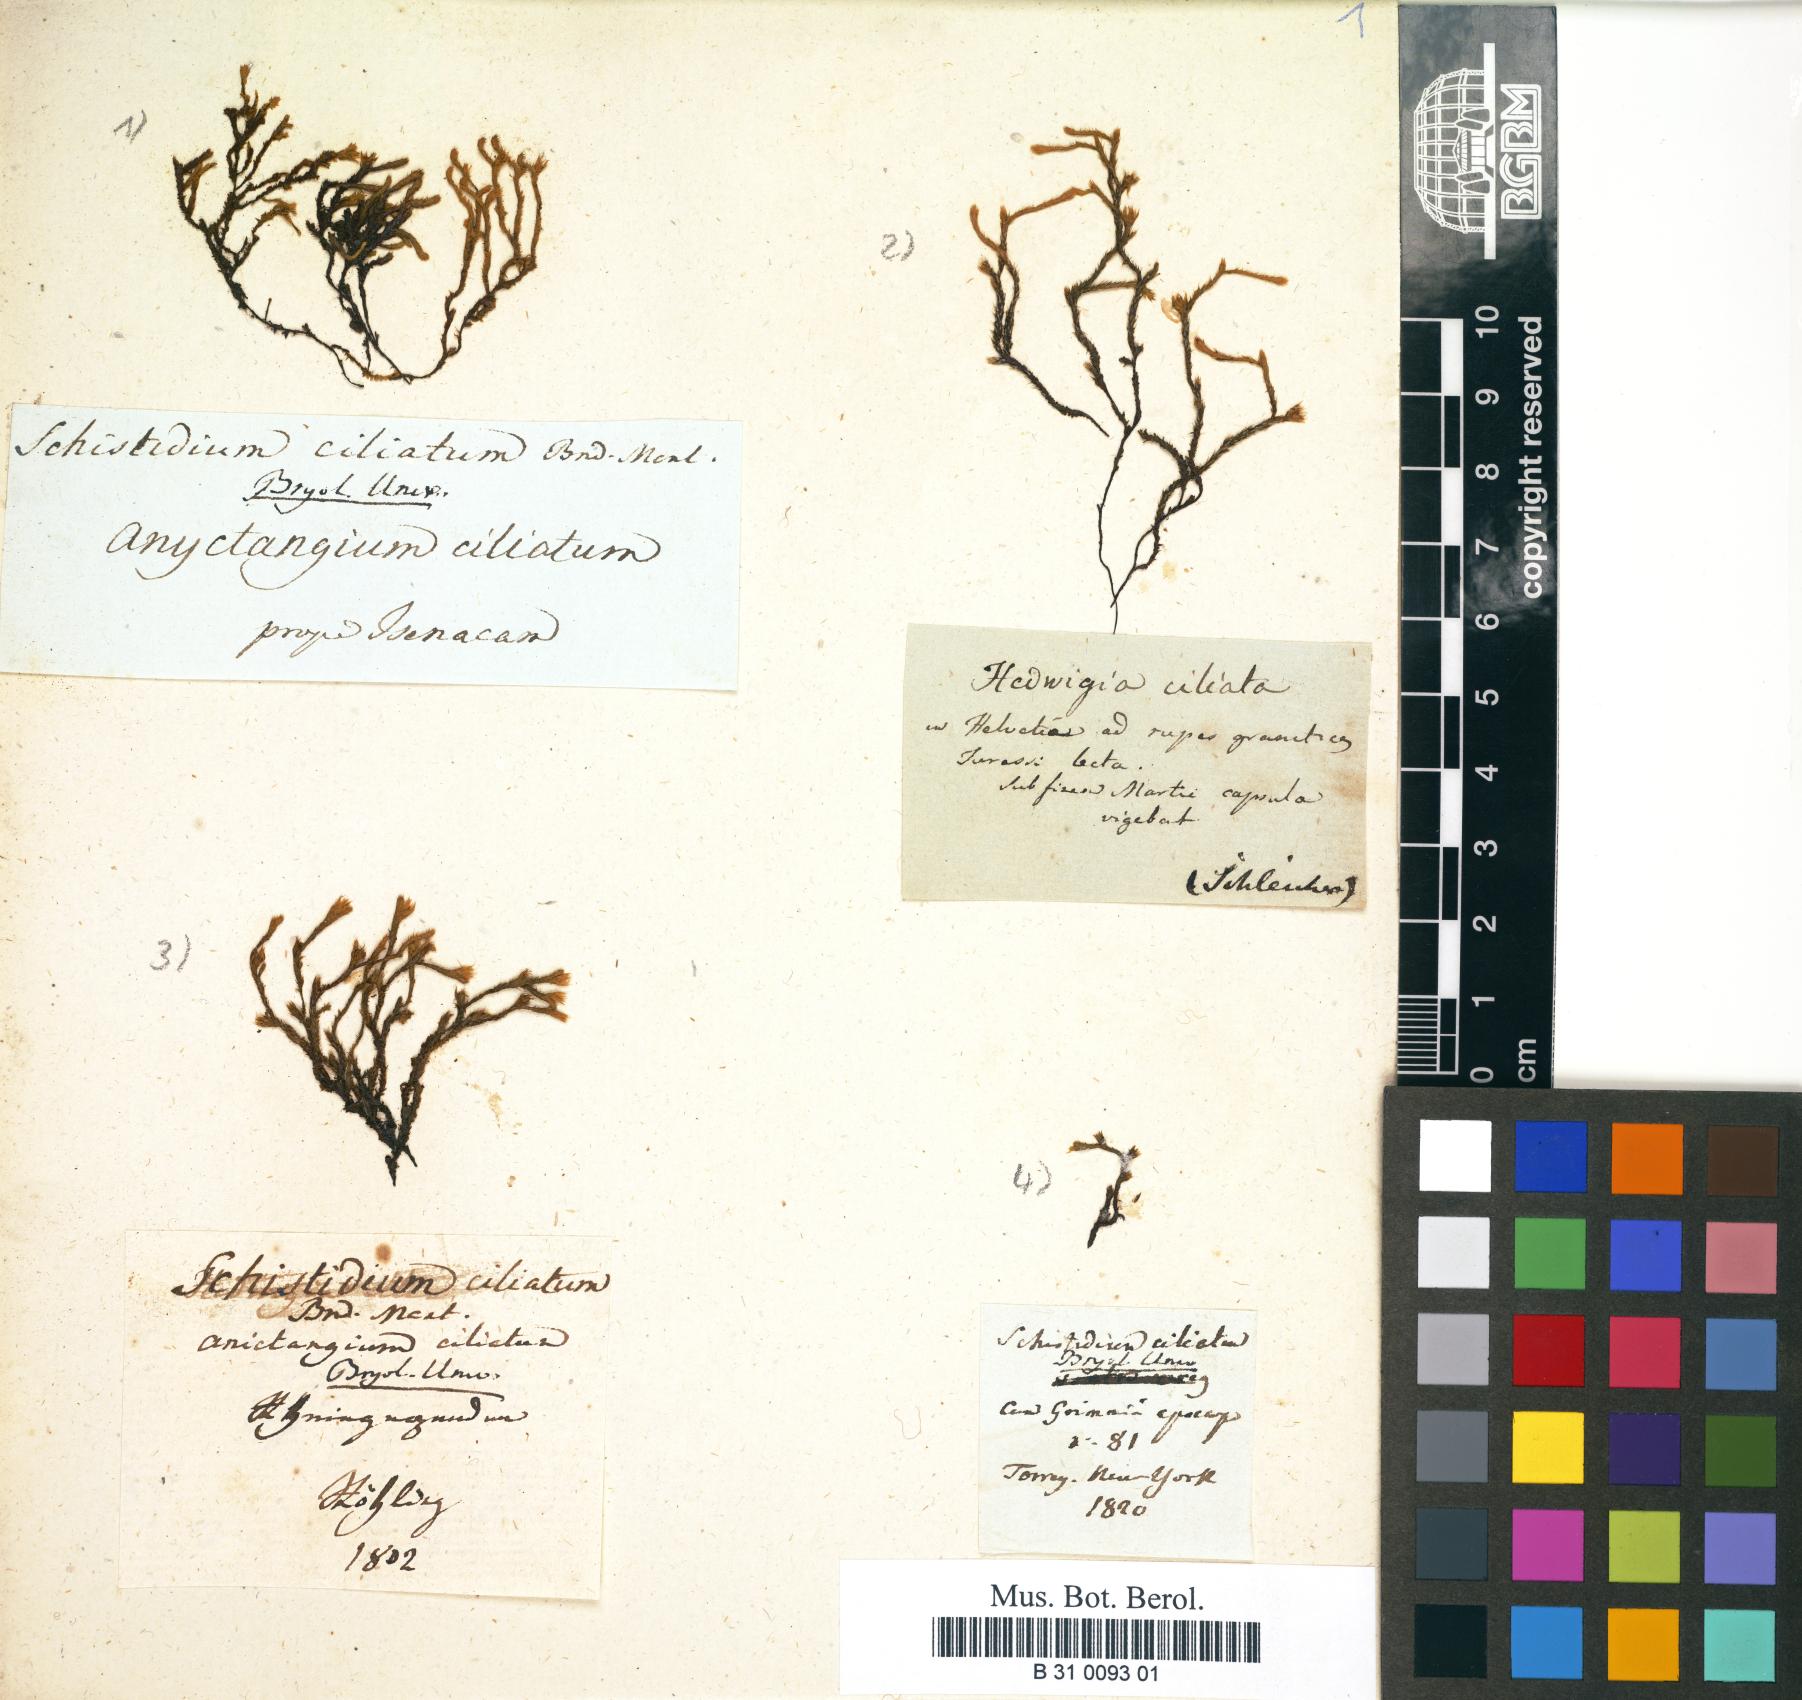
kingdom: Plantae
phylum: Bryophyta
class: Bryopsida
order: Hedwigiales
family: Hedwigiaceae
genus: Hedwigia
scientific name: Hedwigia ciliata
